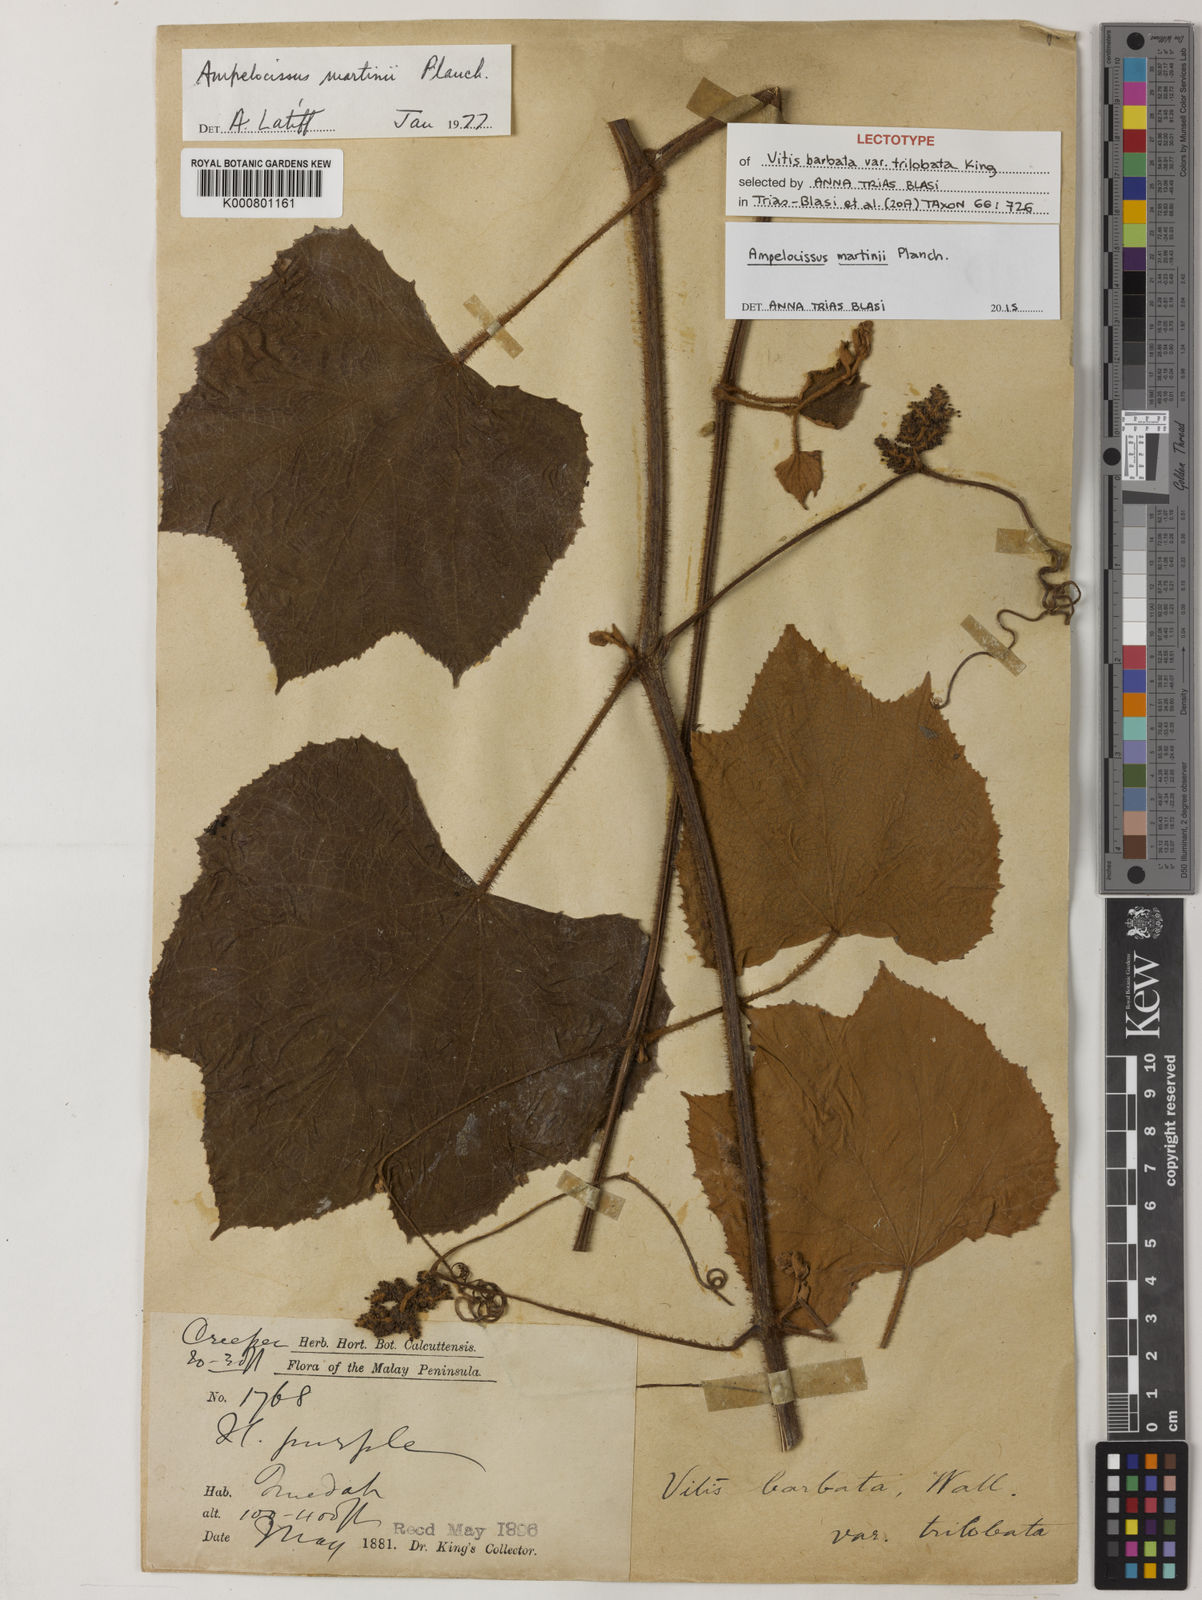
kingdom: Plantae
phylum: Tracheophyta
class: Magnoliopsida
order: Vitales
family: Vitaceae
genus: Ampelocissus
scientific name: Ampelocissus martini
